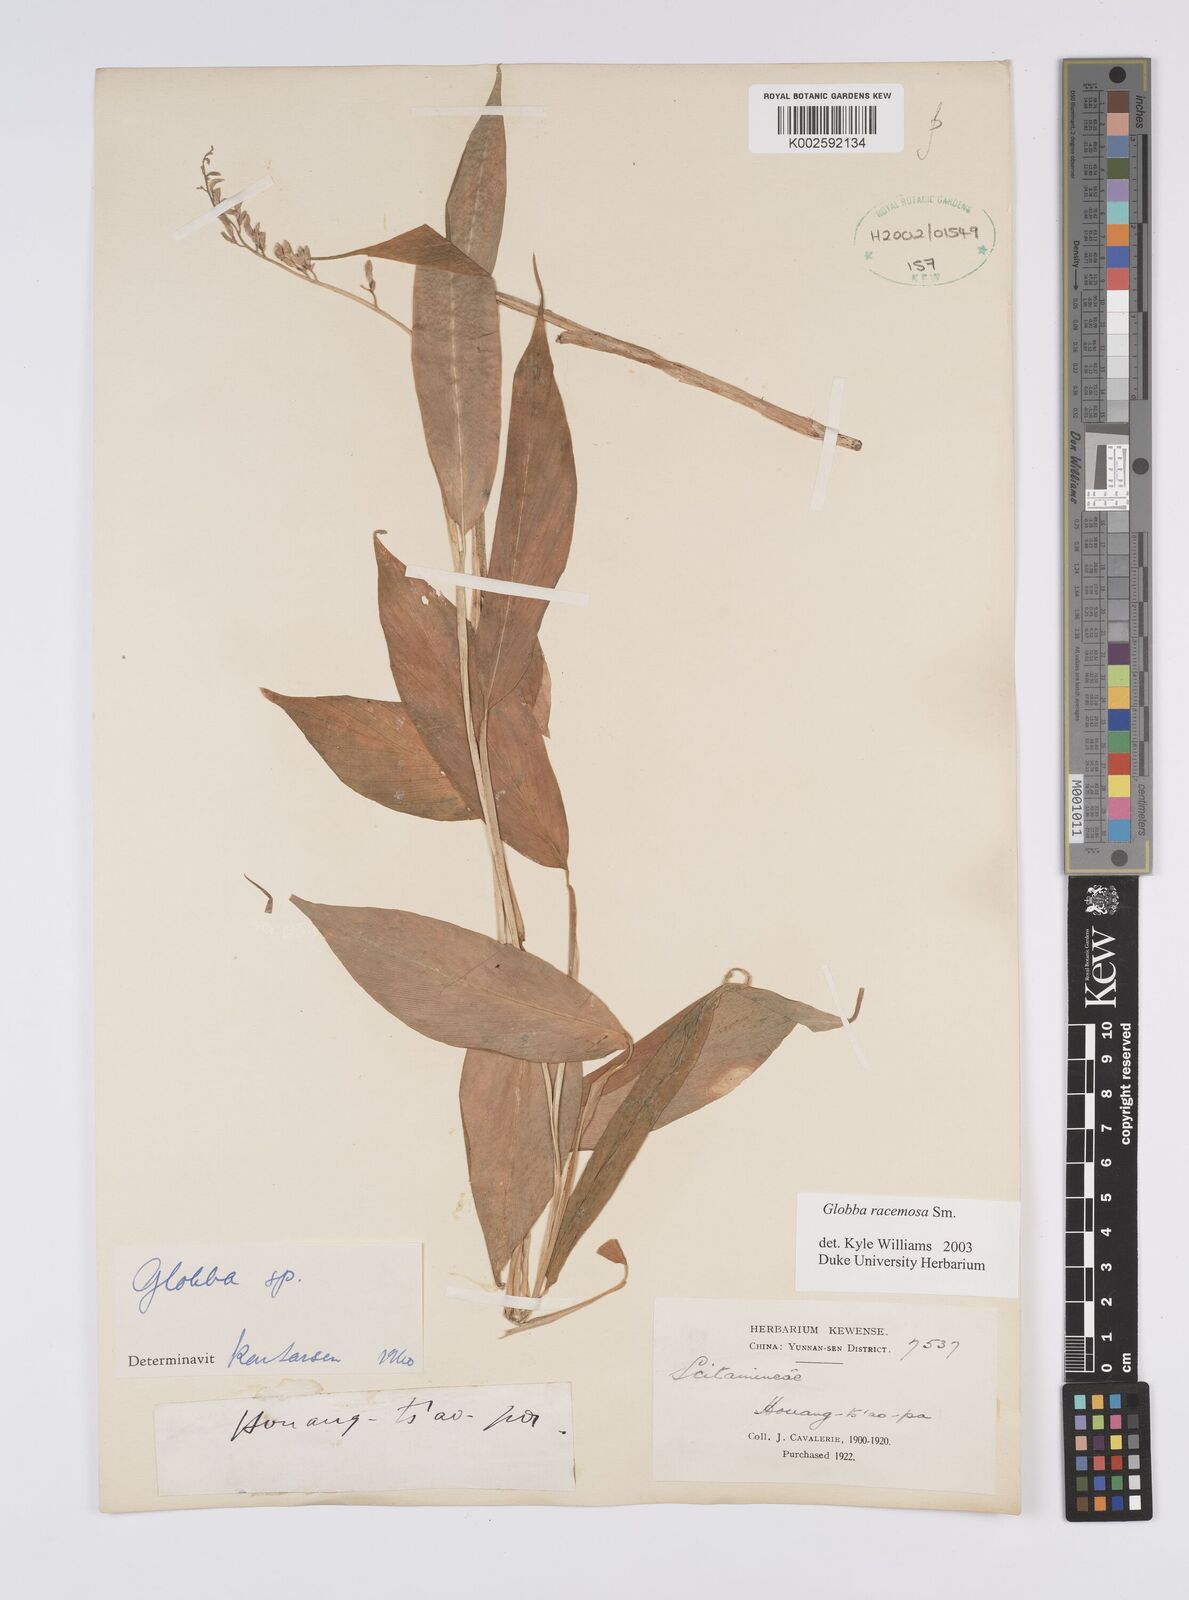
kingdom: Plantae
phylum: Tracheophyta
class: Liliopsida
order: Zingiberales
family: Zingiberaceae
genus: Globba
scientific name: Globba racemosa
